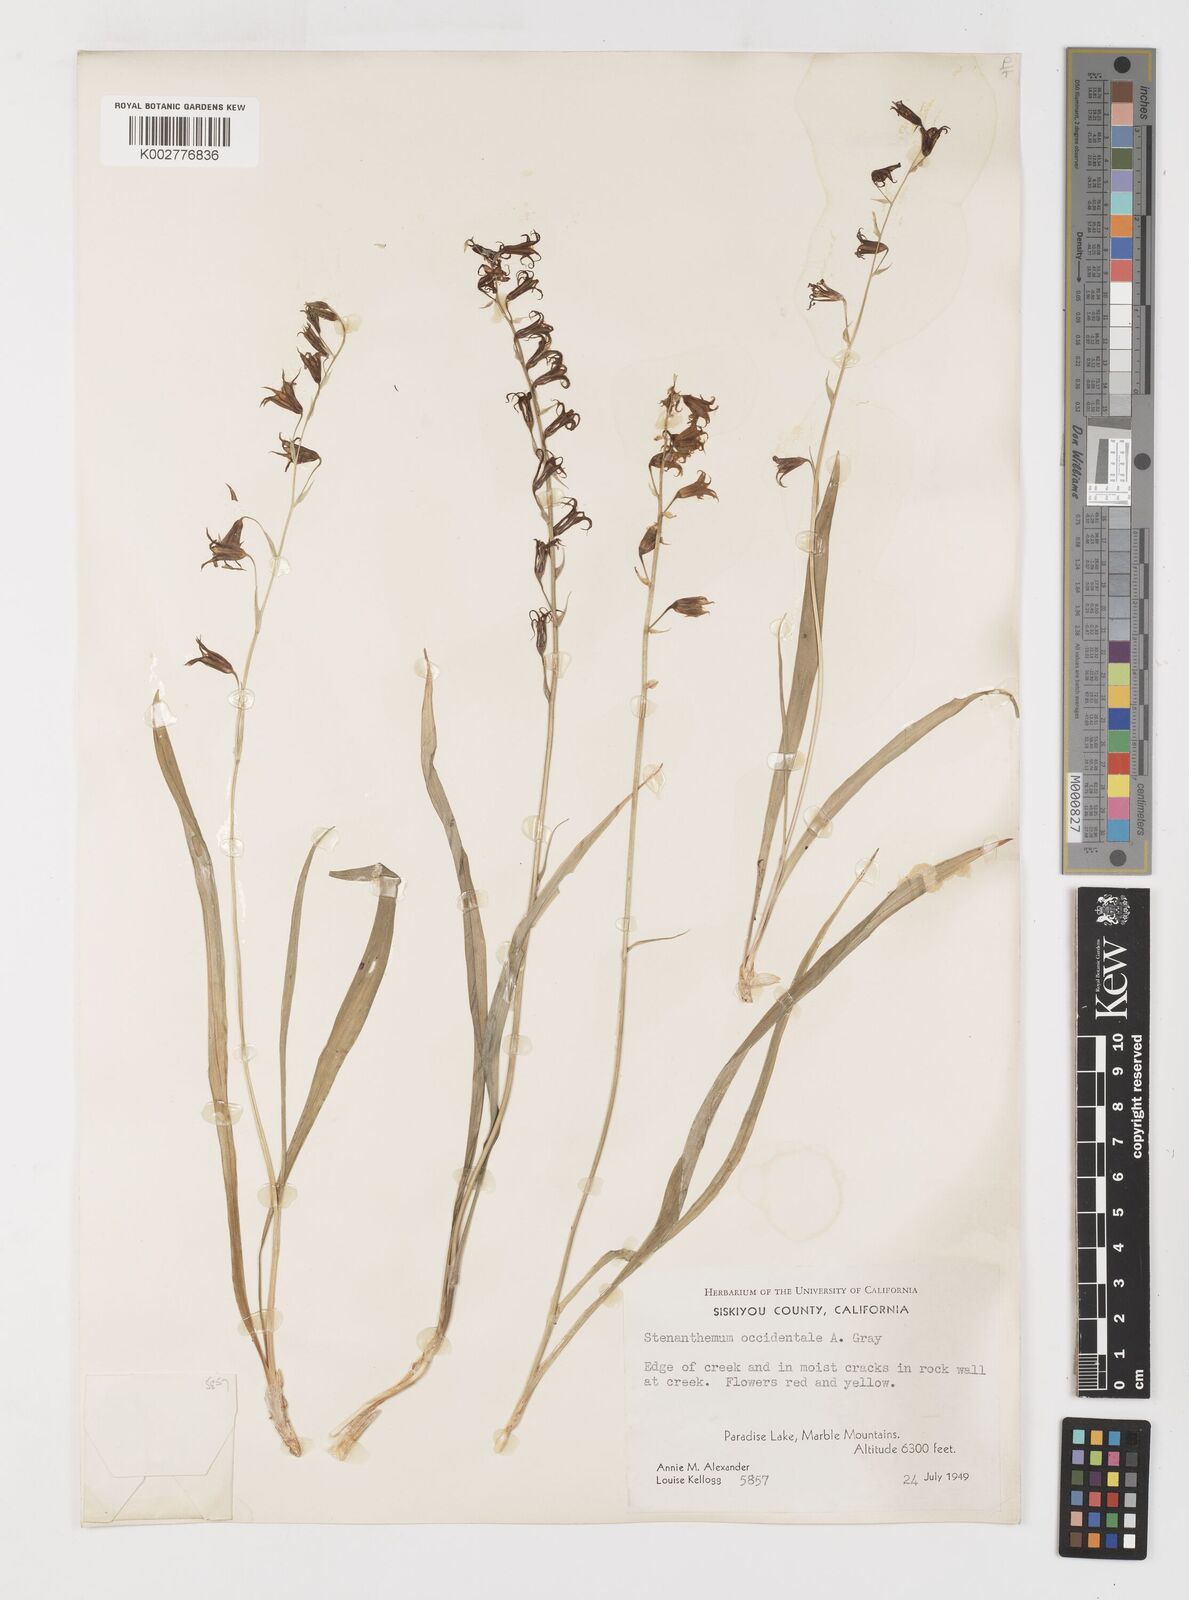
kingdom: Plantae
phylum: Tracheophyta
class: Liliopsida
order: Liliales
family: Melanthiaceae
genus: Anticlea
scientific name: Anticlea occidentalis
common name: Bronze-bells
